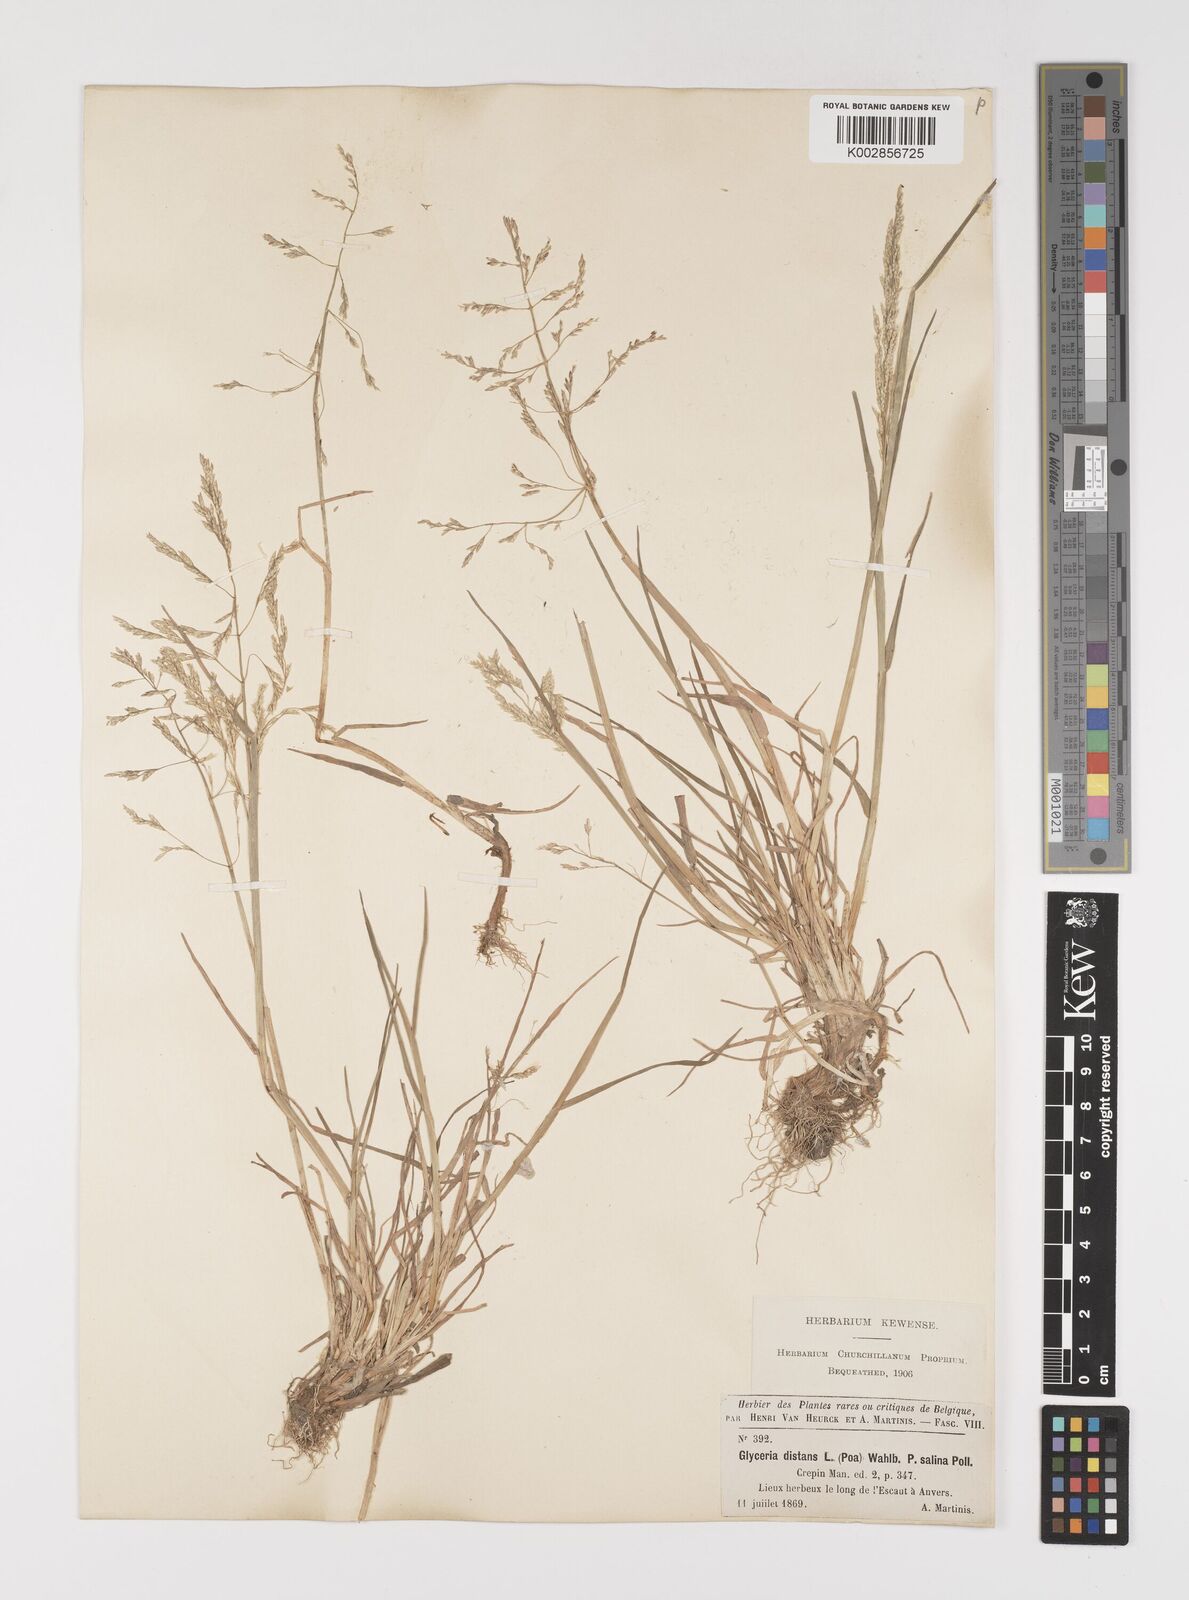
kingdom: Plantae
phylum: Tracheophyta
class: Liliopsida
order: Poales
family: Poaceae
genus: Puccinellia
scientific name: Puccinellia
